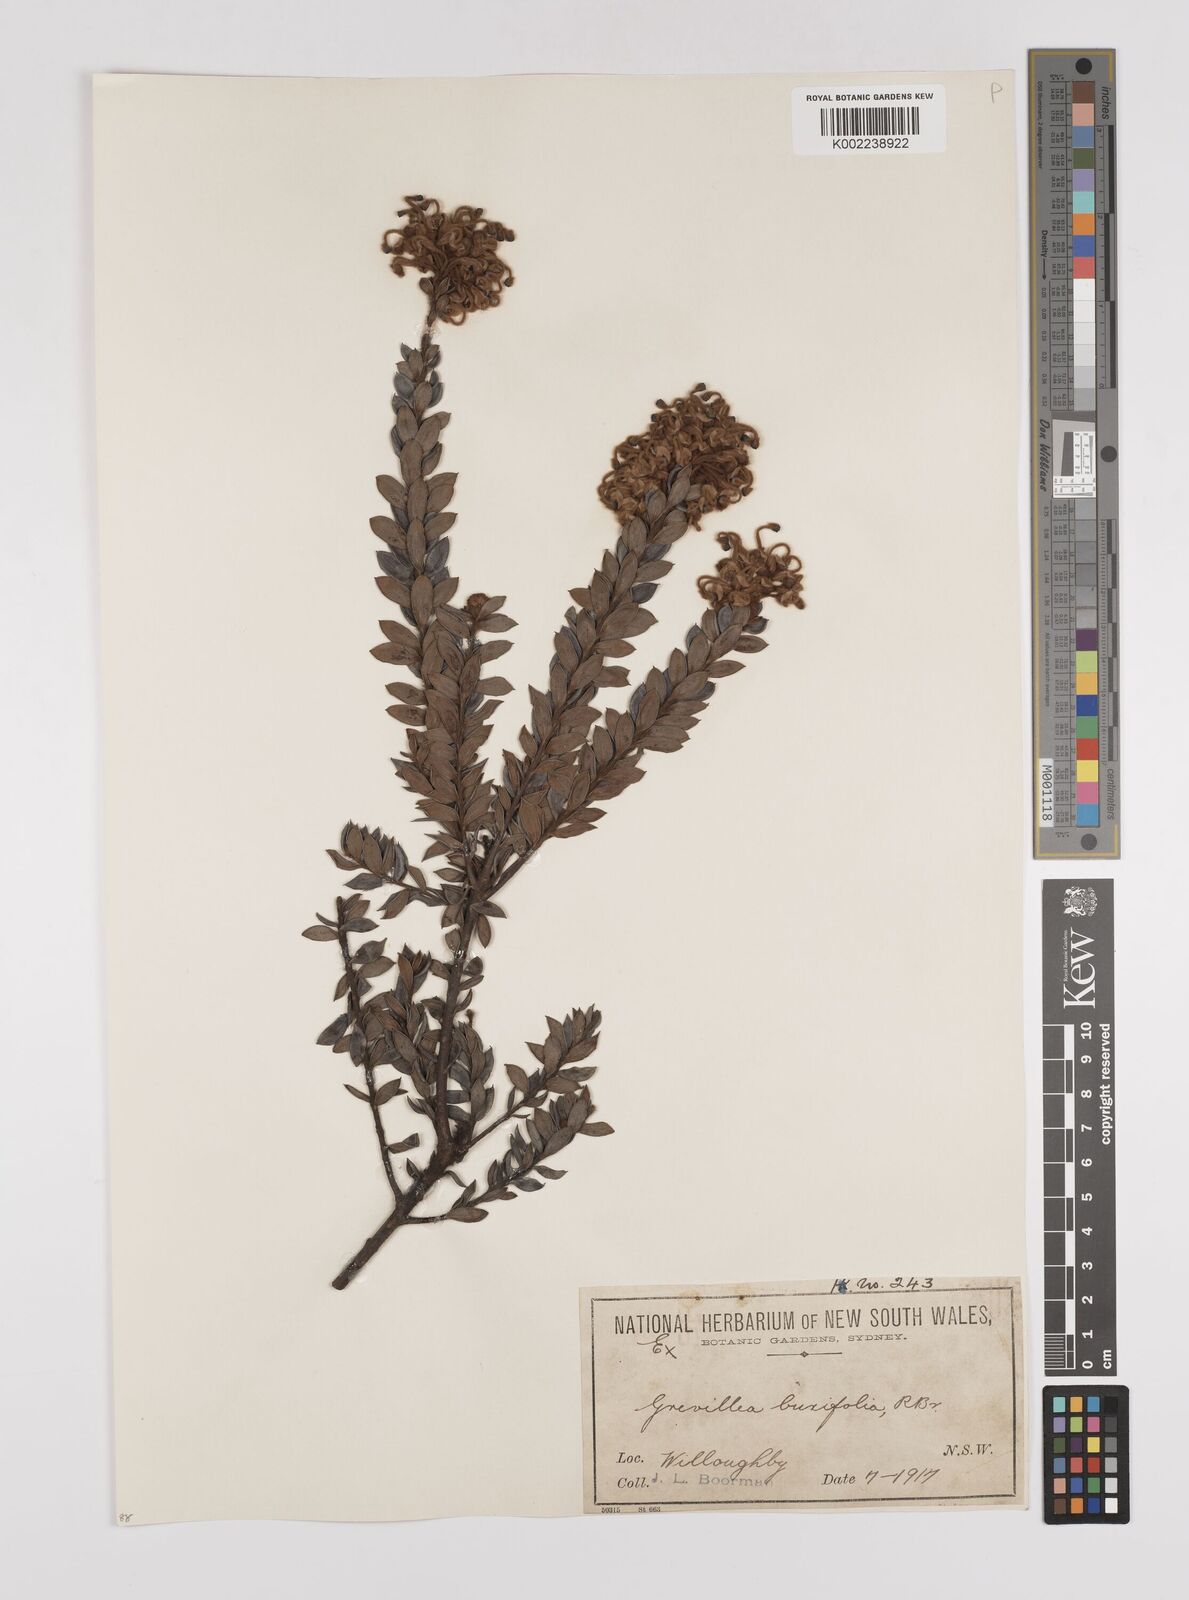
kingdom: Plantae
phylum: Tracheophyta
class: Magnoliopsida
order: Proteales
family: Proteaceae
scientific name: Proteaceae
